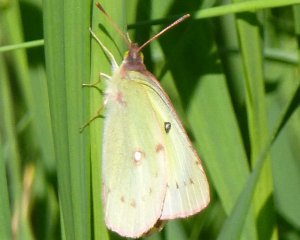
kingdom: Animalia
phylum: Arthropoda
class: Insecta
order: Lepidoptera
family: Pieridae
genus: Colias
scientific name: Colias philodice
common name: Clouded Sulphur
